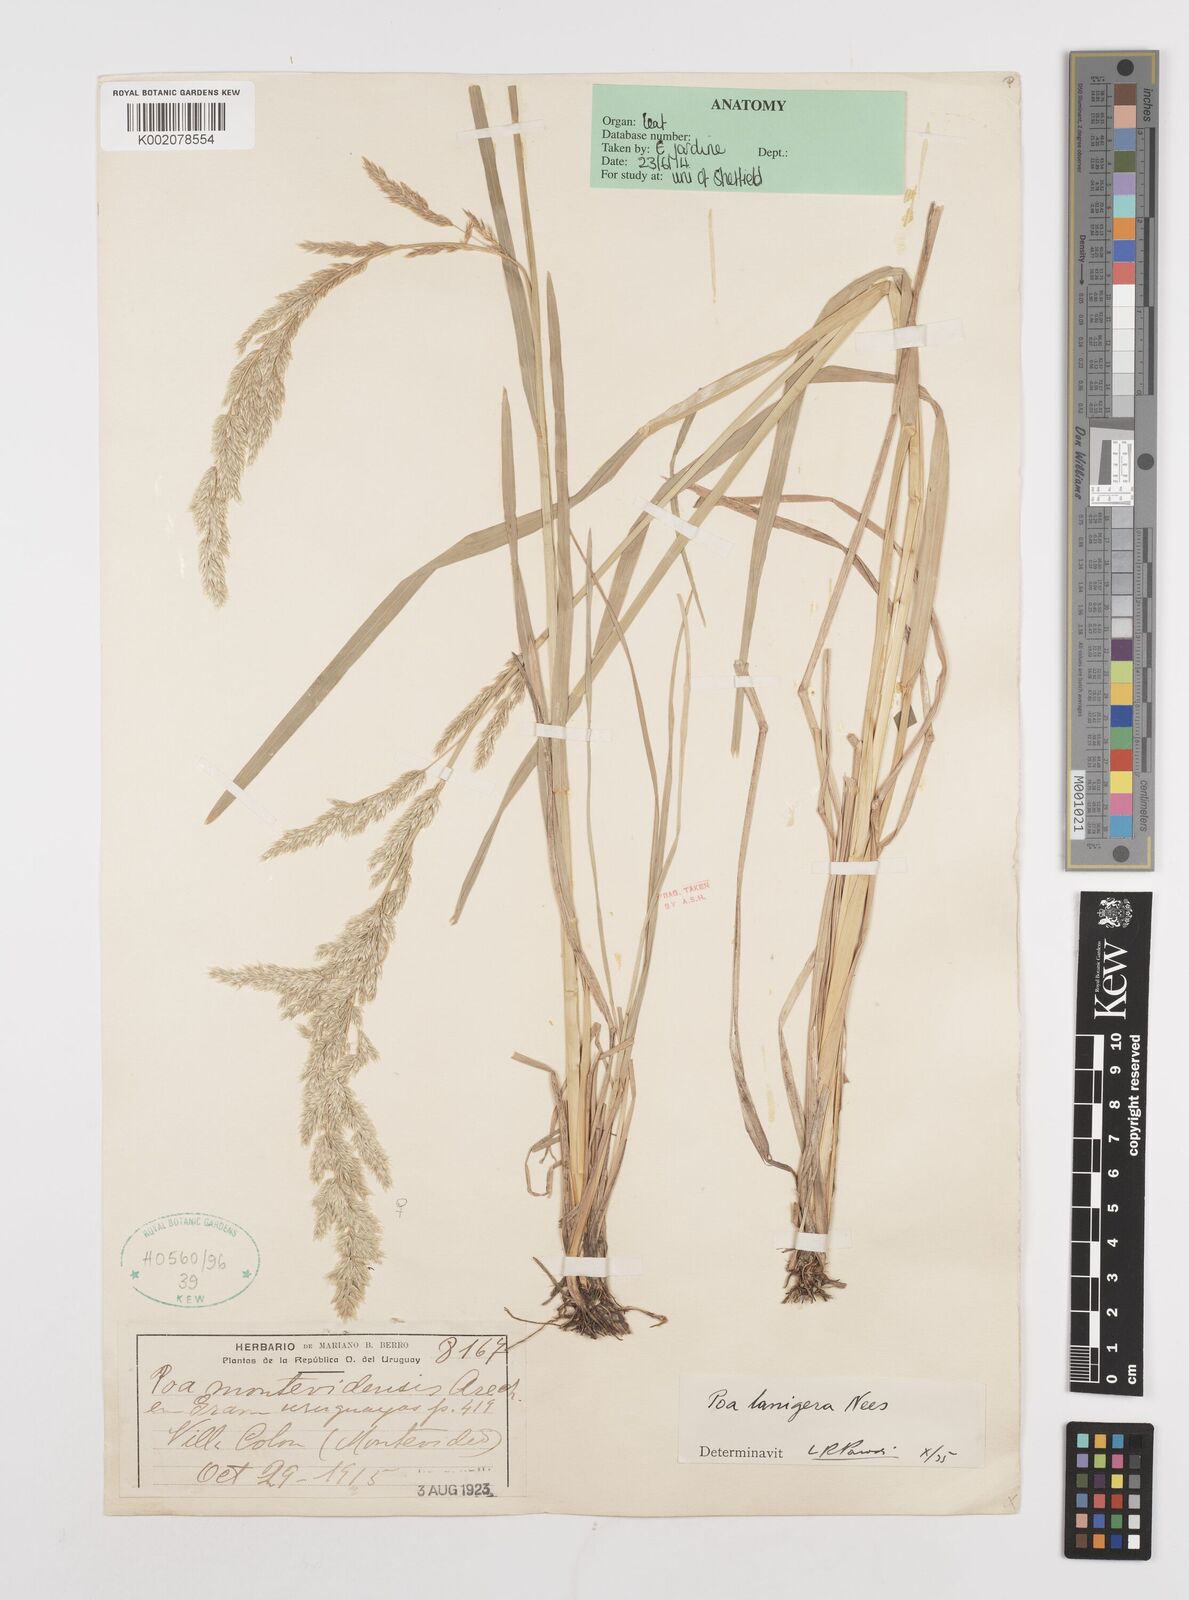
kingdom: Plantae
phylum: Tracheophyta
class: Liliopsida
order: Poales
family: Poaceae
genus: Poa
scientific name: Poa lanuginosa
